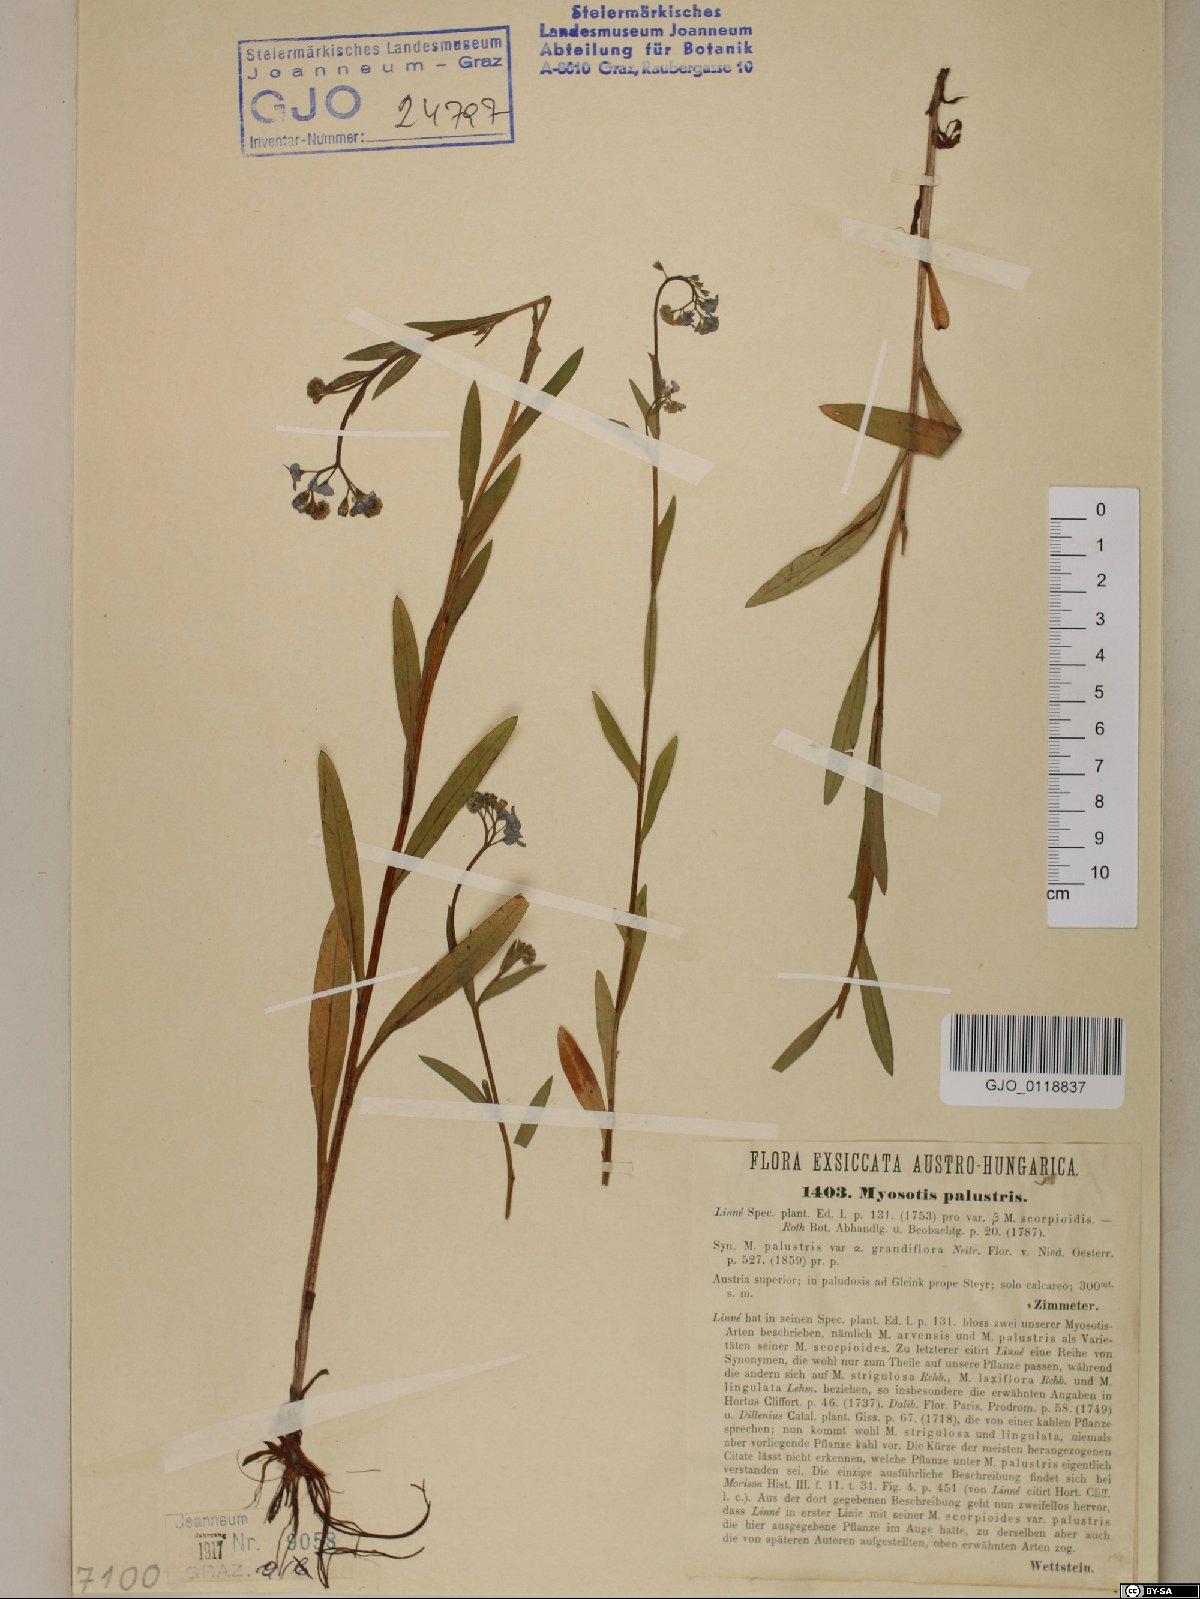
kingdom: Plantae
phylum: Tracheophyta
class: Magnoliopsida
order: Boraginales
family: Boraginaceae
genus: Myosotis
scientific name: Myosotis scorpioides
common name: Water forget-me-not
